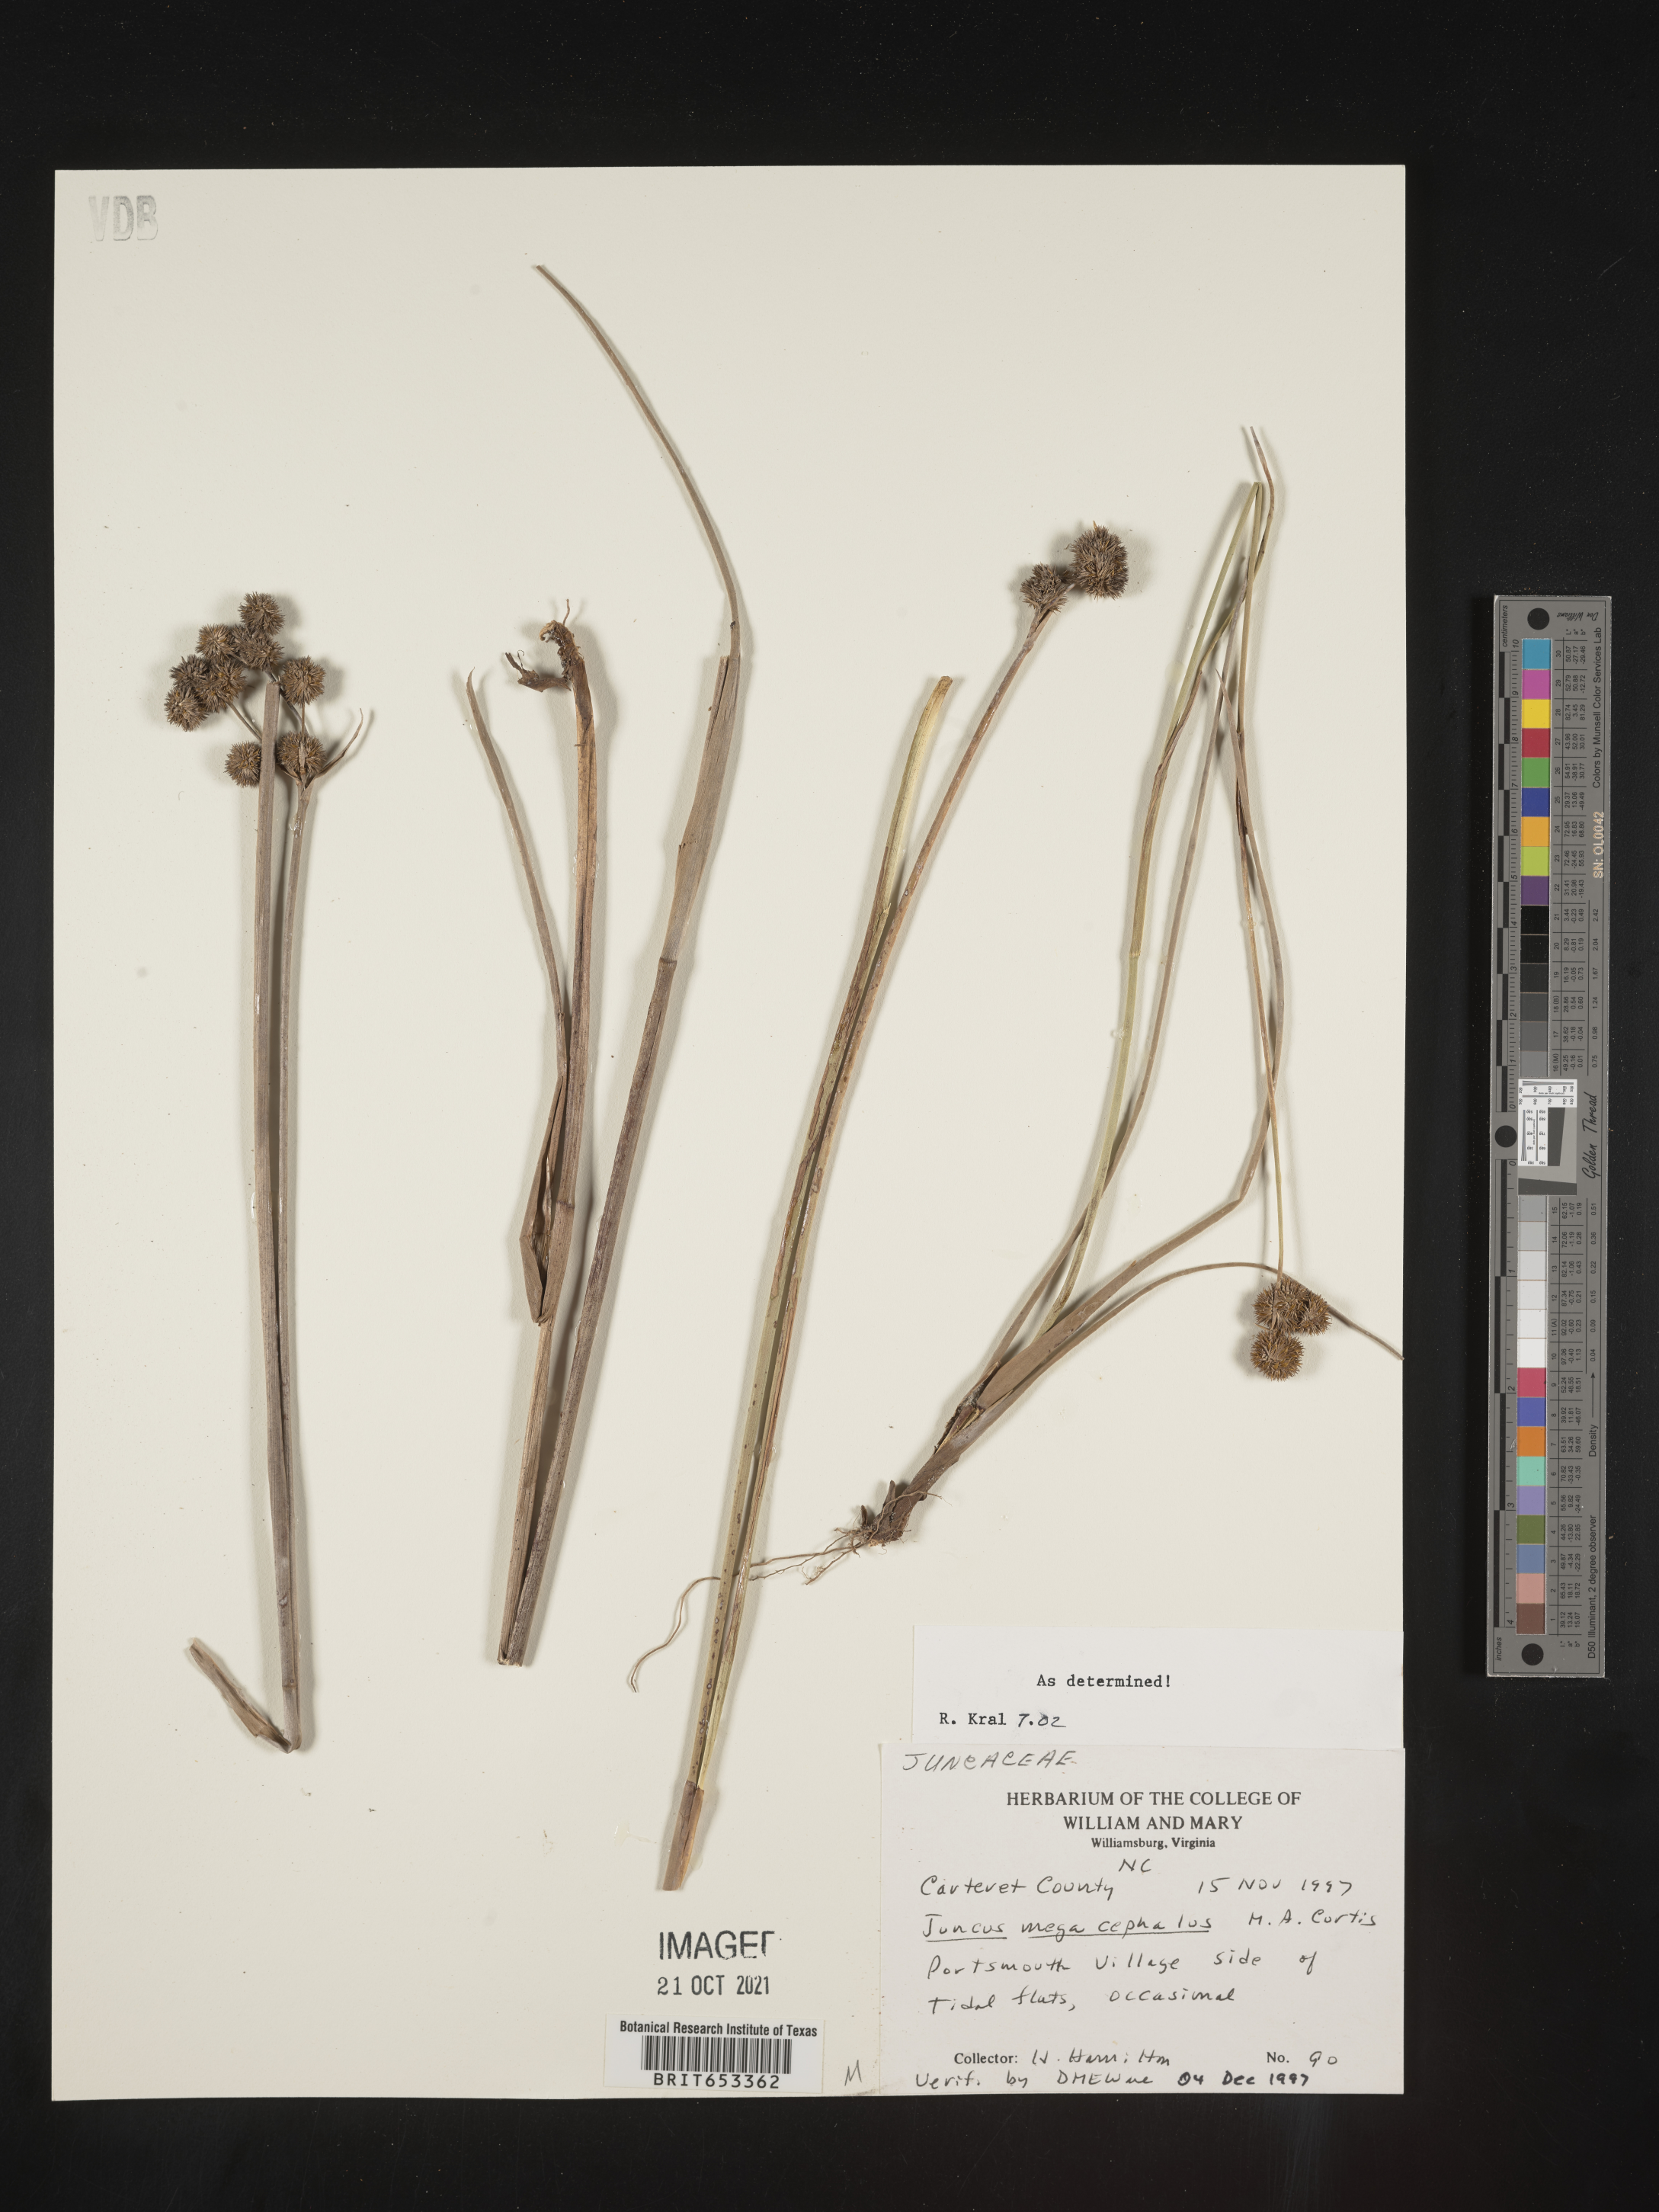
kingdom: Plantae
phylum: Tracheophyta
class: Liliopsida
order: Poales
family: Juncaceae
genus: Juncus
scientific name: Juncus megacephalus
